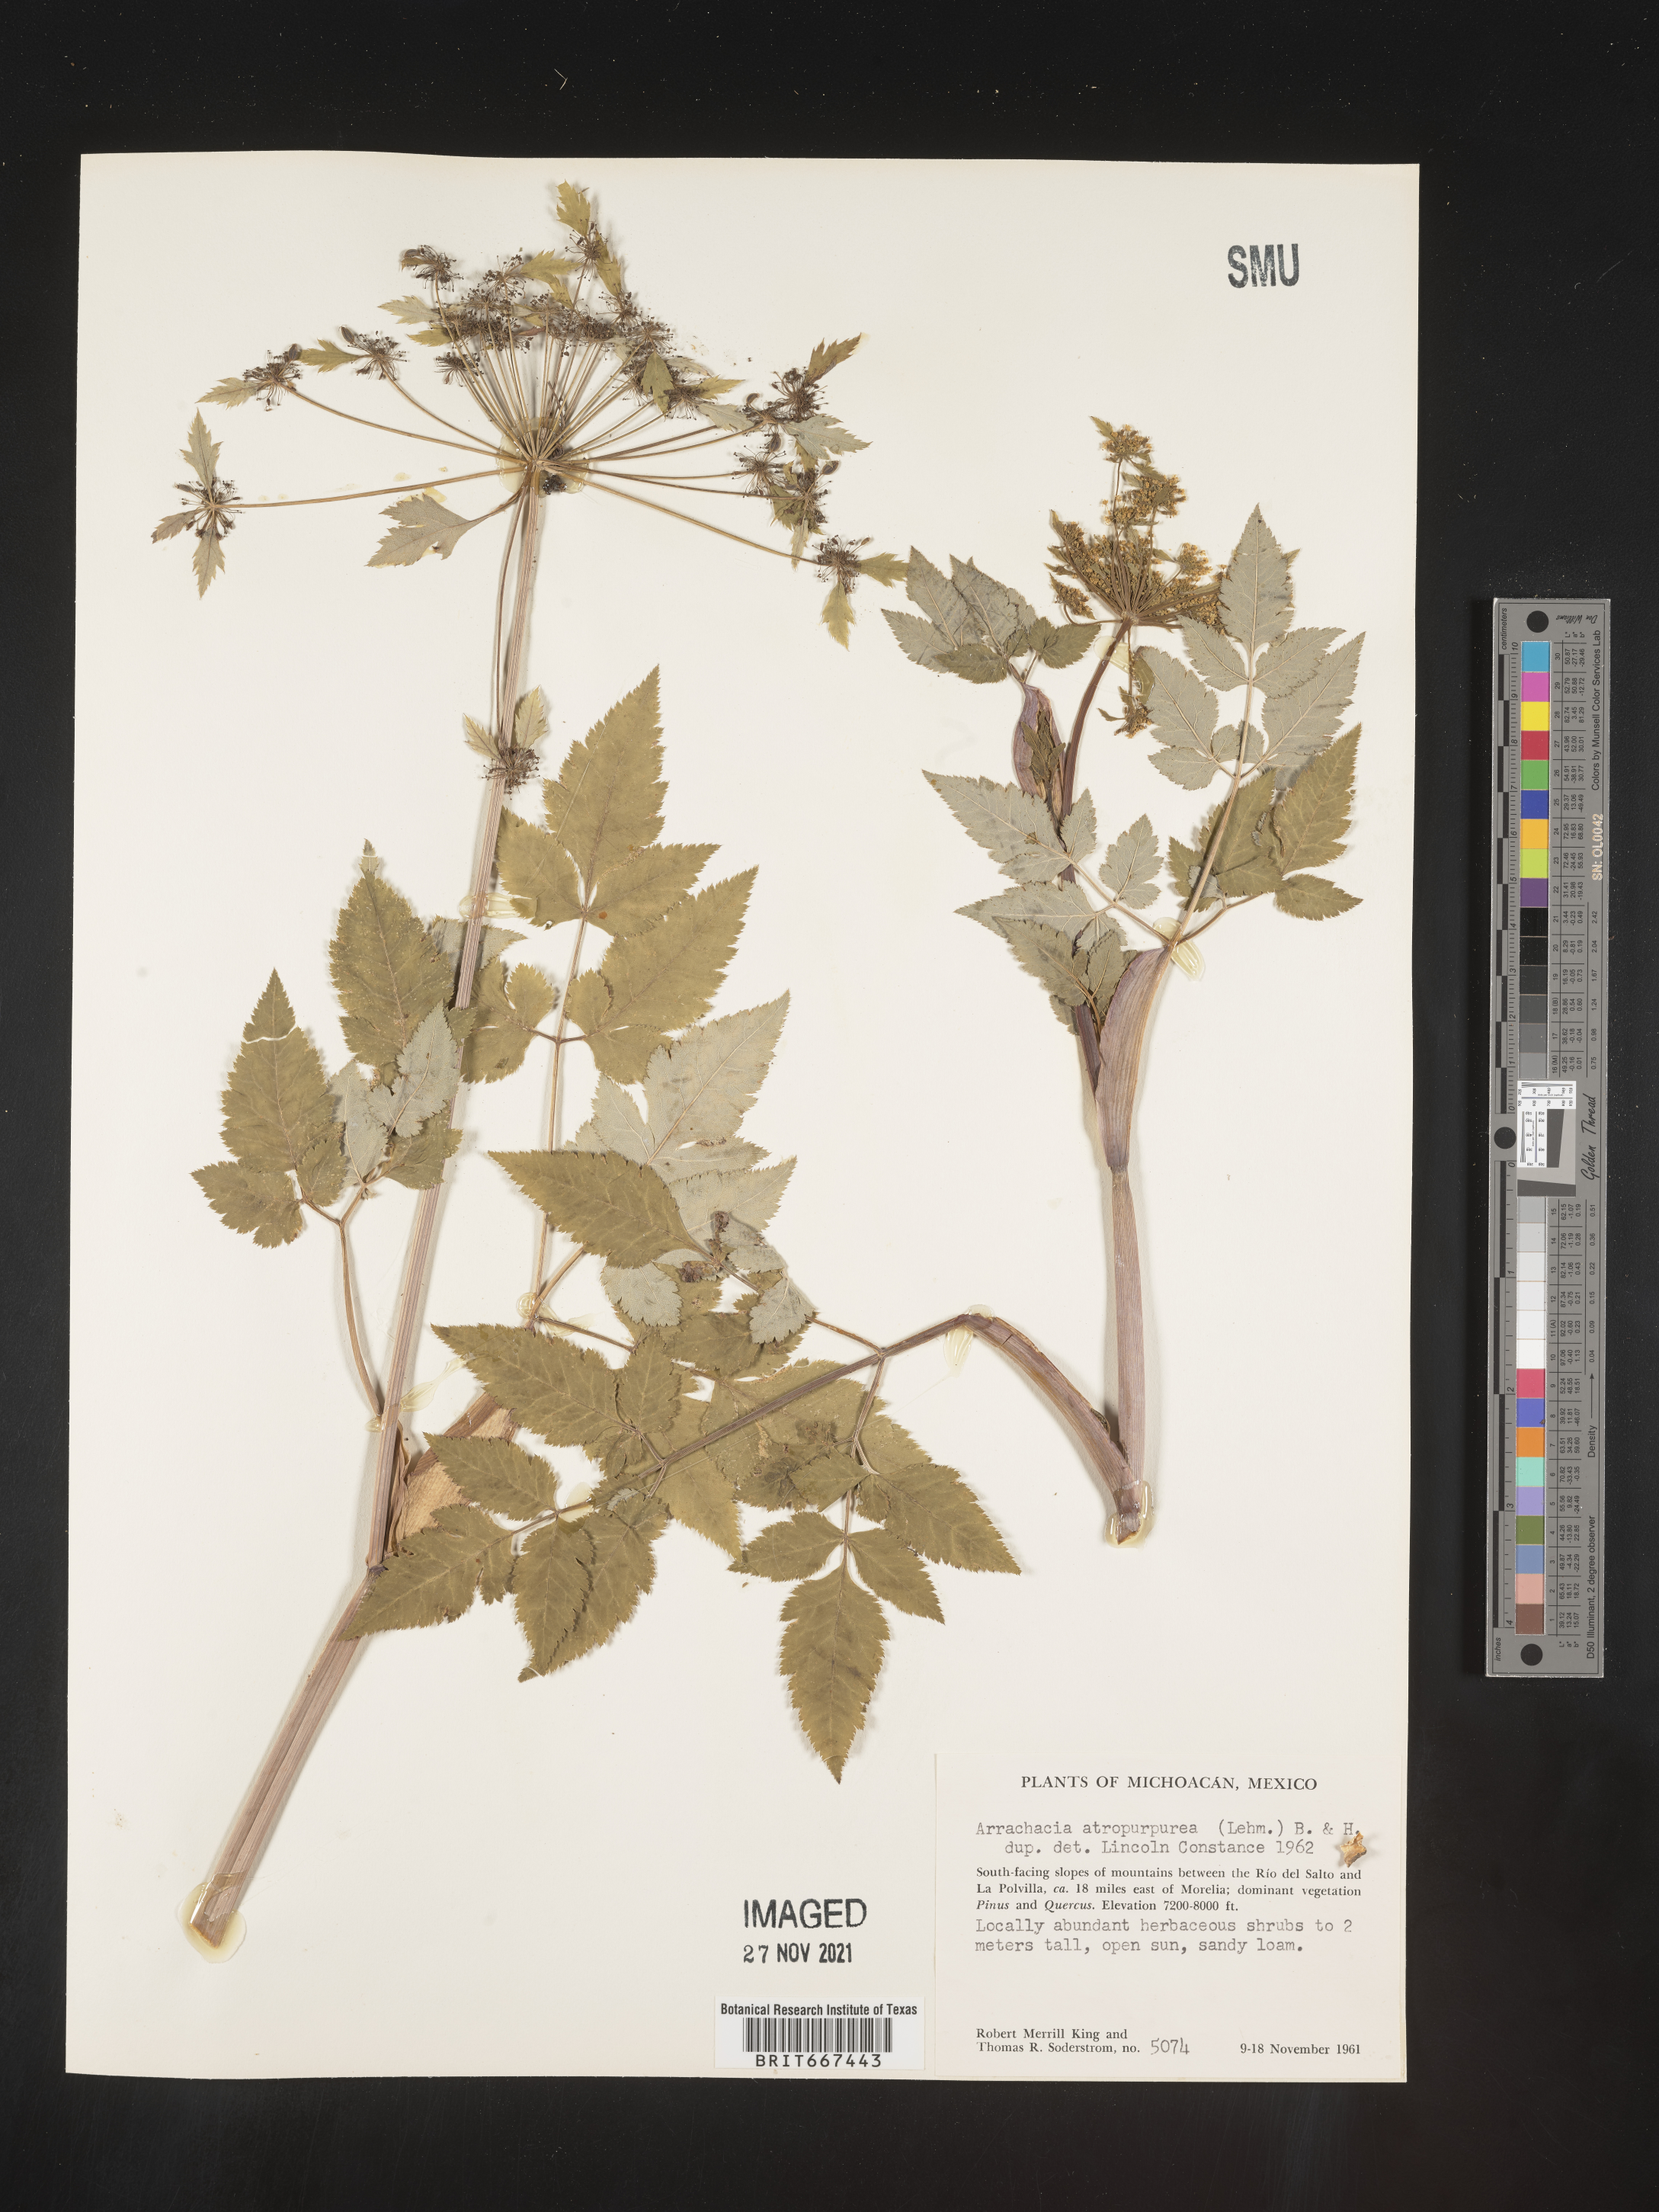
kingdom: Plantae
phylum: Tracheophyta
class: Magnoliopsida
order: Apiales
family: Apiaceae
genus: Arracacia
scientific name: Arracacia
